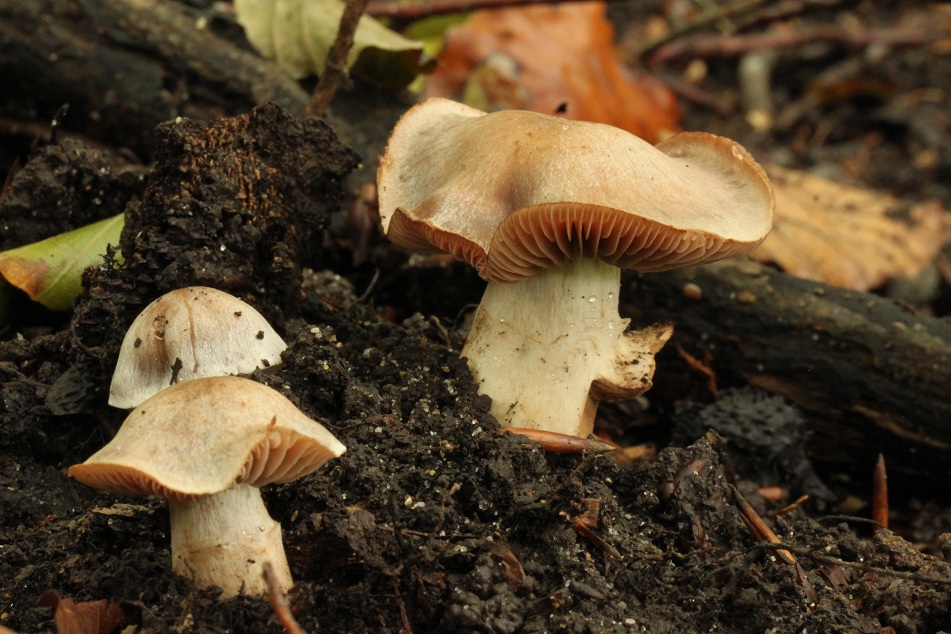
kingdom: Fungi
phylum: Basidiomycota
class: Agaricomycetes
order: Agaricales
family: Cortinariaceae
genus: Cortinarius
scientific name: Cortinarius aleuriodor
